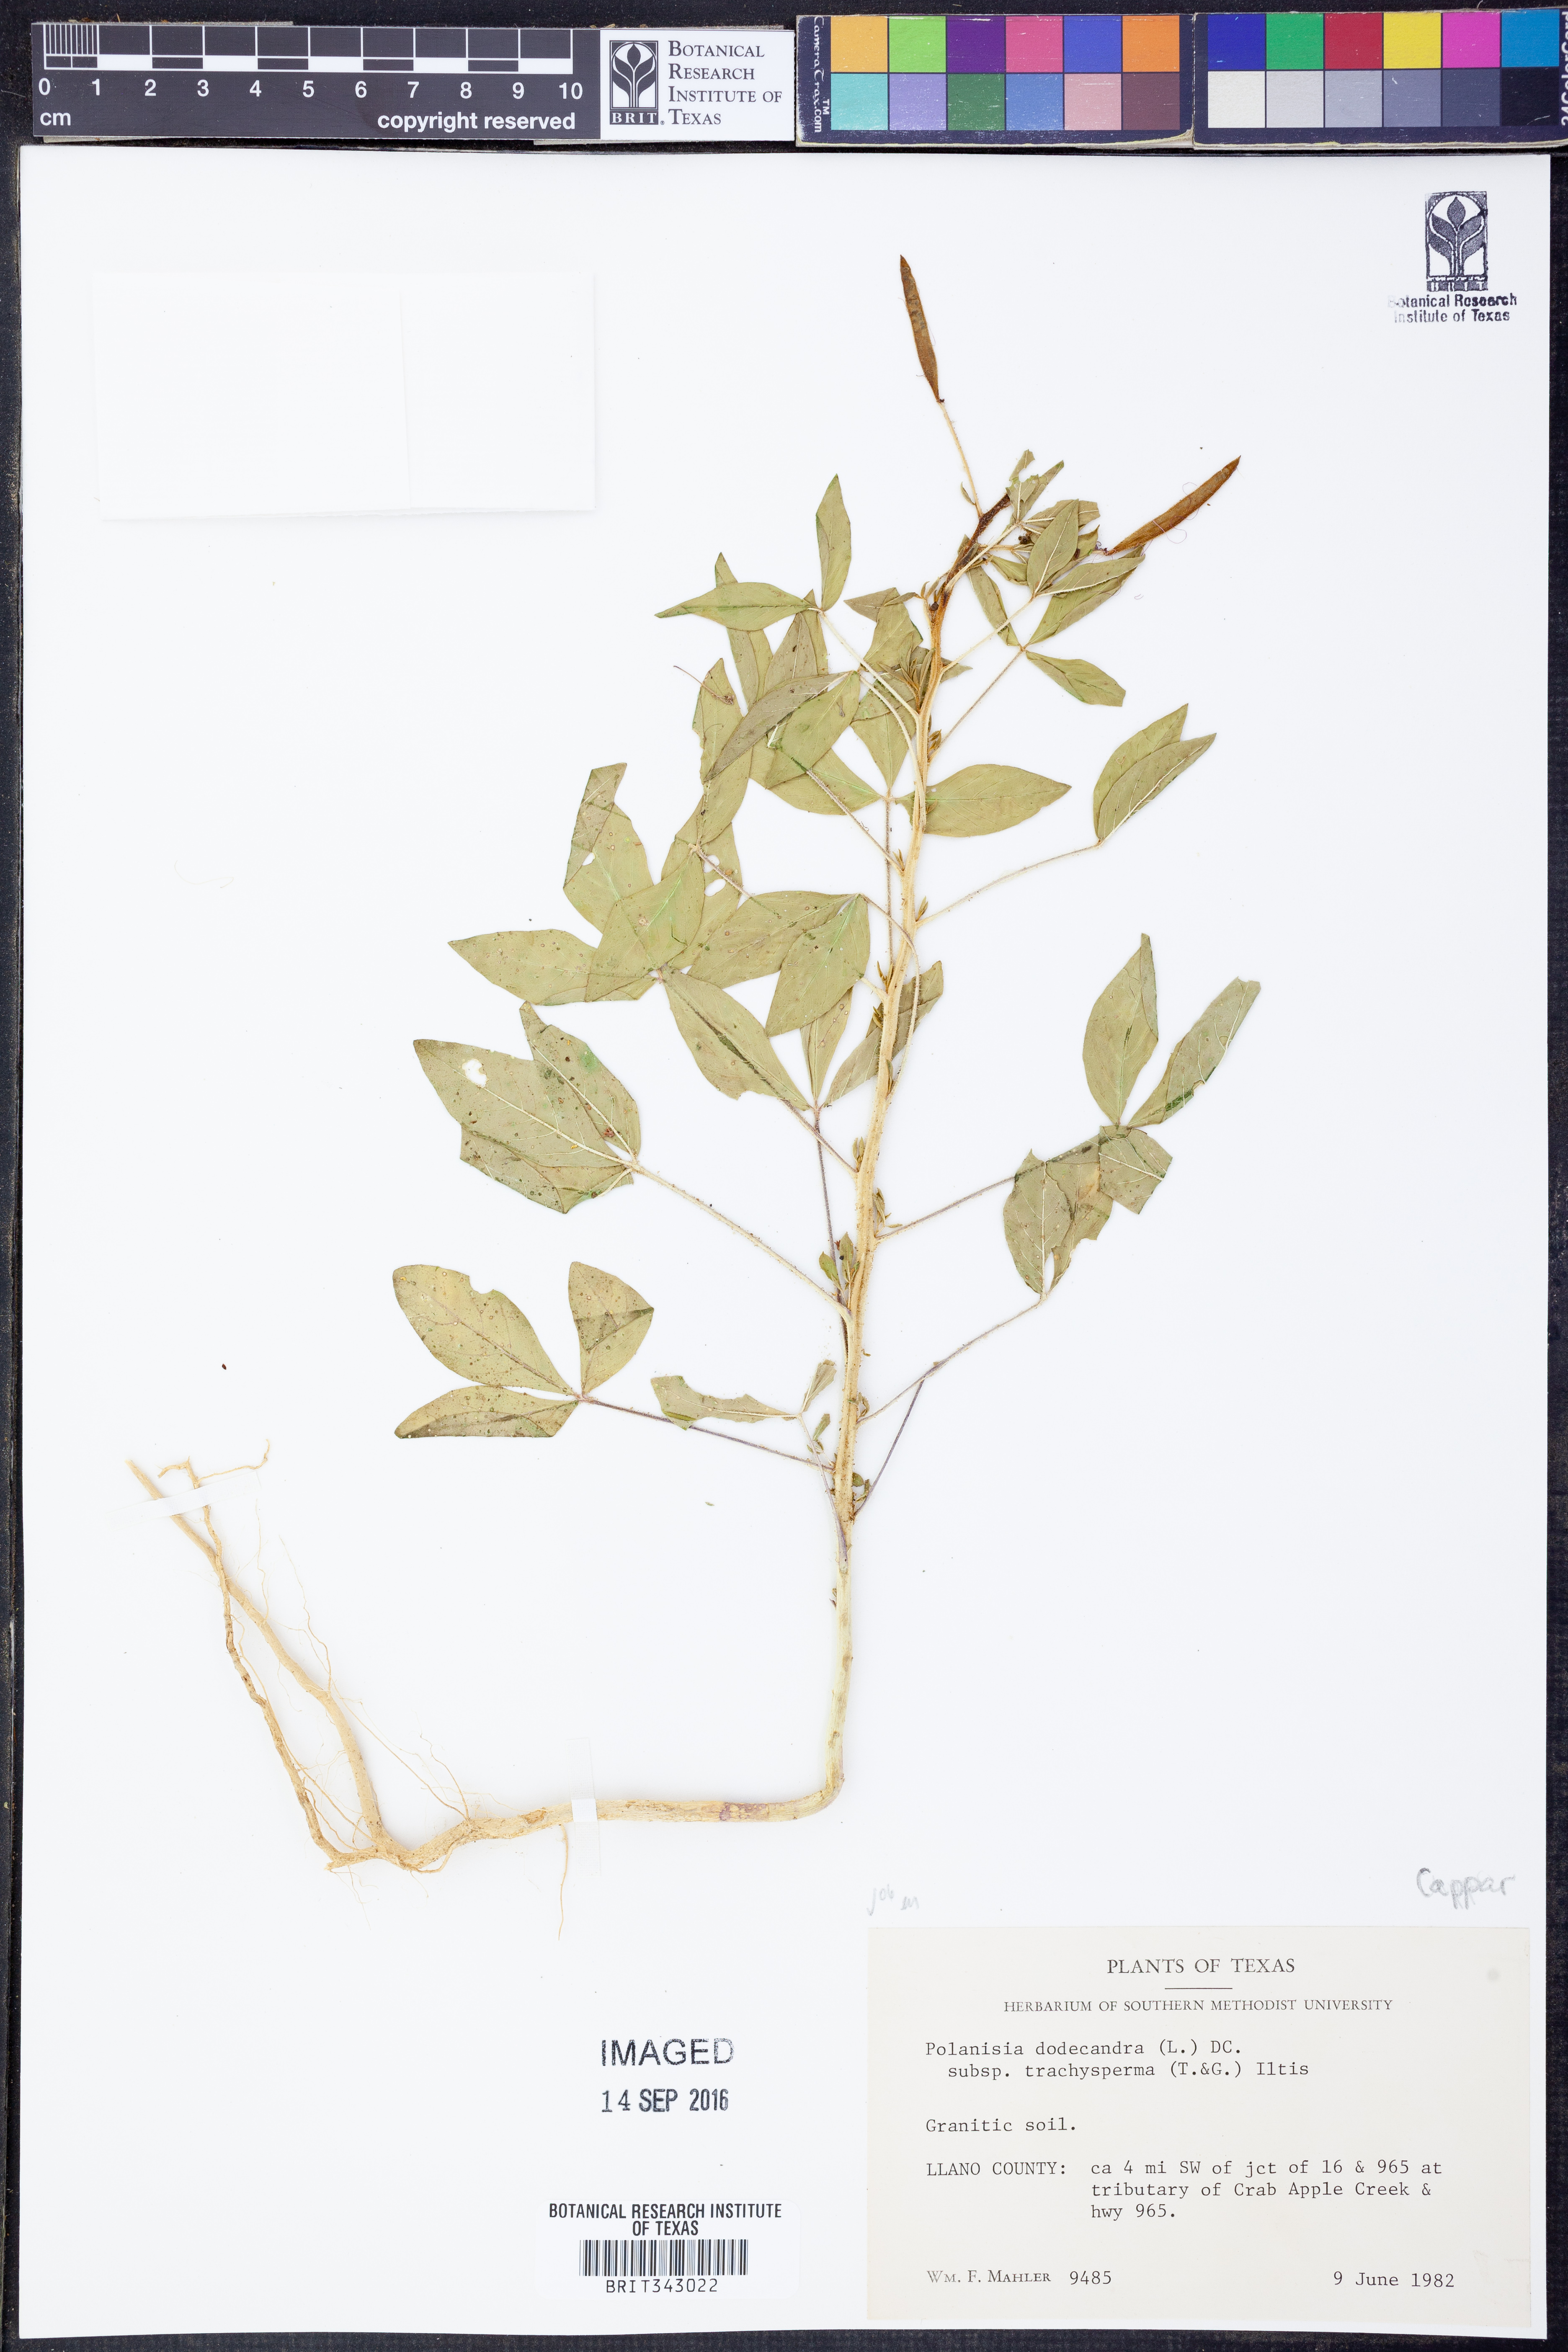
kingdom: Plantae
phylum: Tracheophyta
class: Magnoliopsida
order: Brassicales
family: Cleomaceae
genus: Polanisia
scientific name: Polanisia trachysperma
